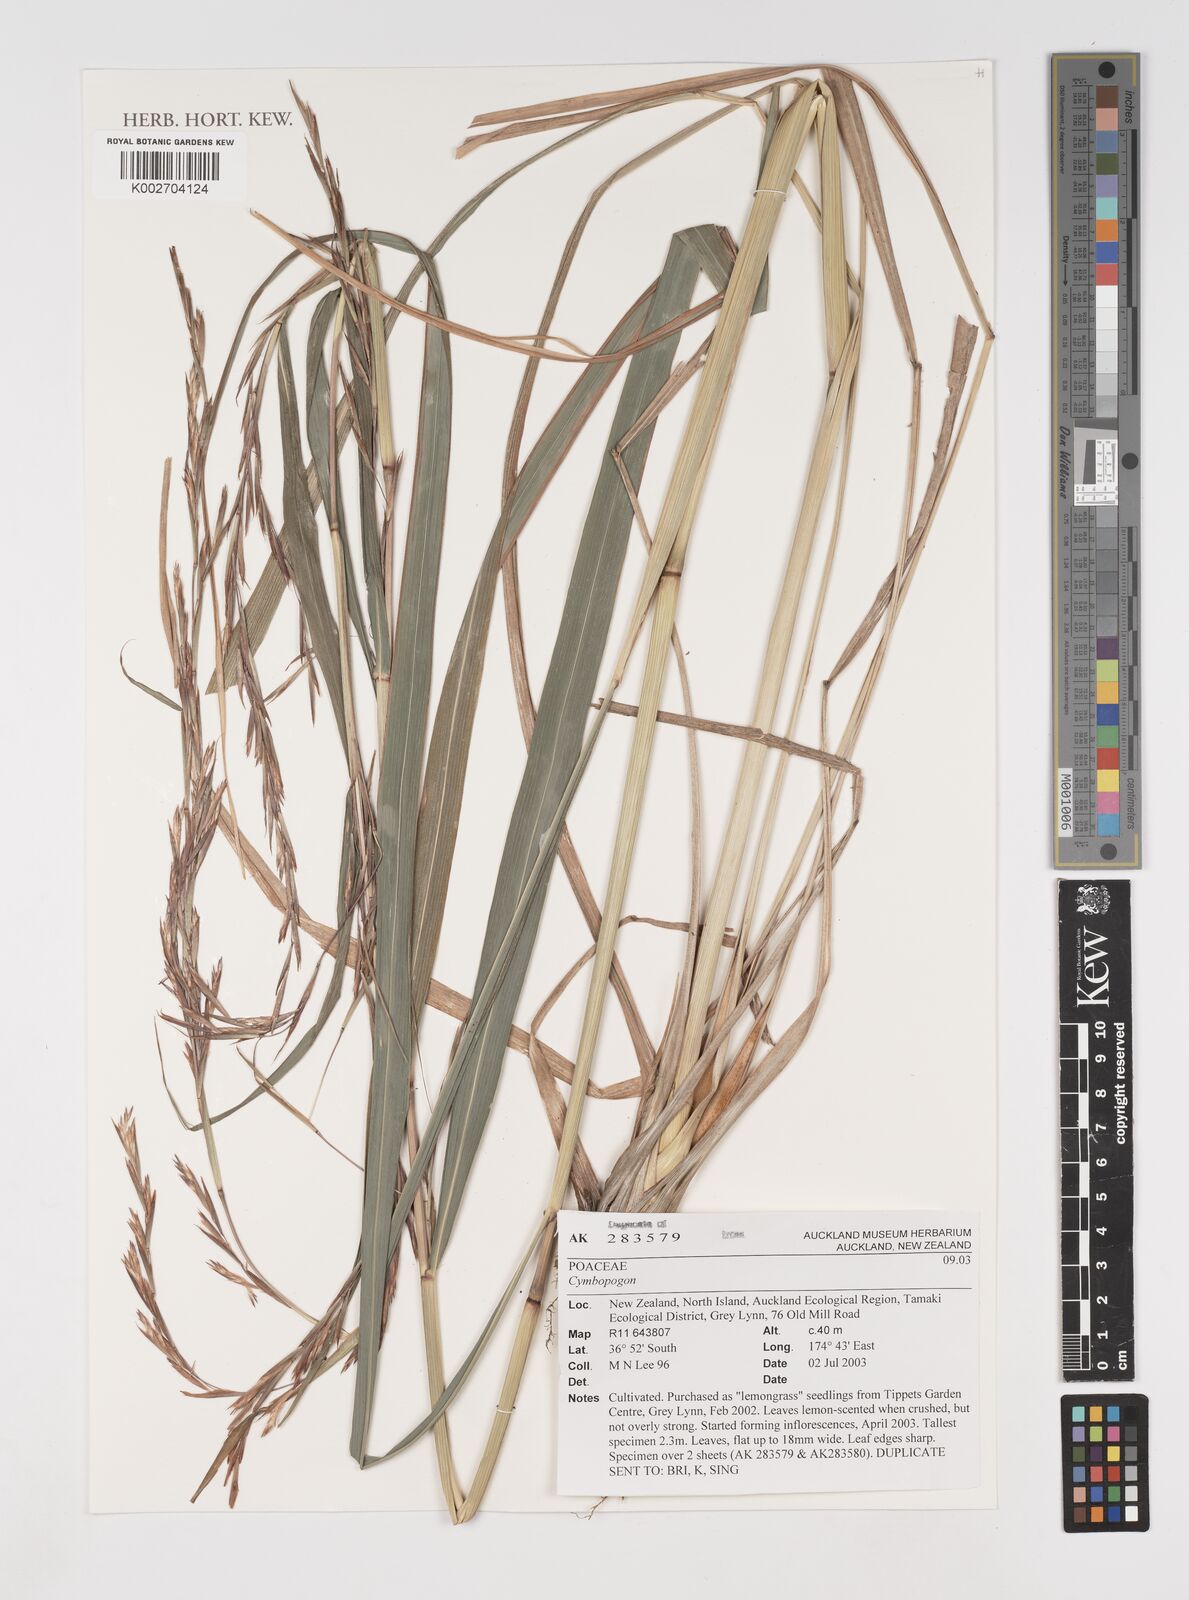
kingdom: Plantae
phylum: Tracheophyta
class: Liliopsida
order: Poales
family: Poaceae
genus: Cymbopogon
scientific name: Cymbopogon
